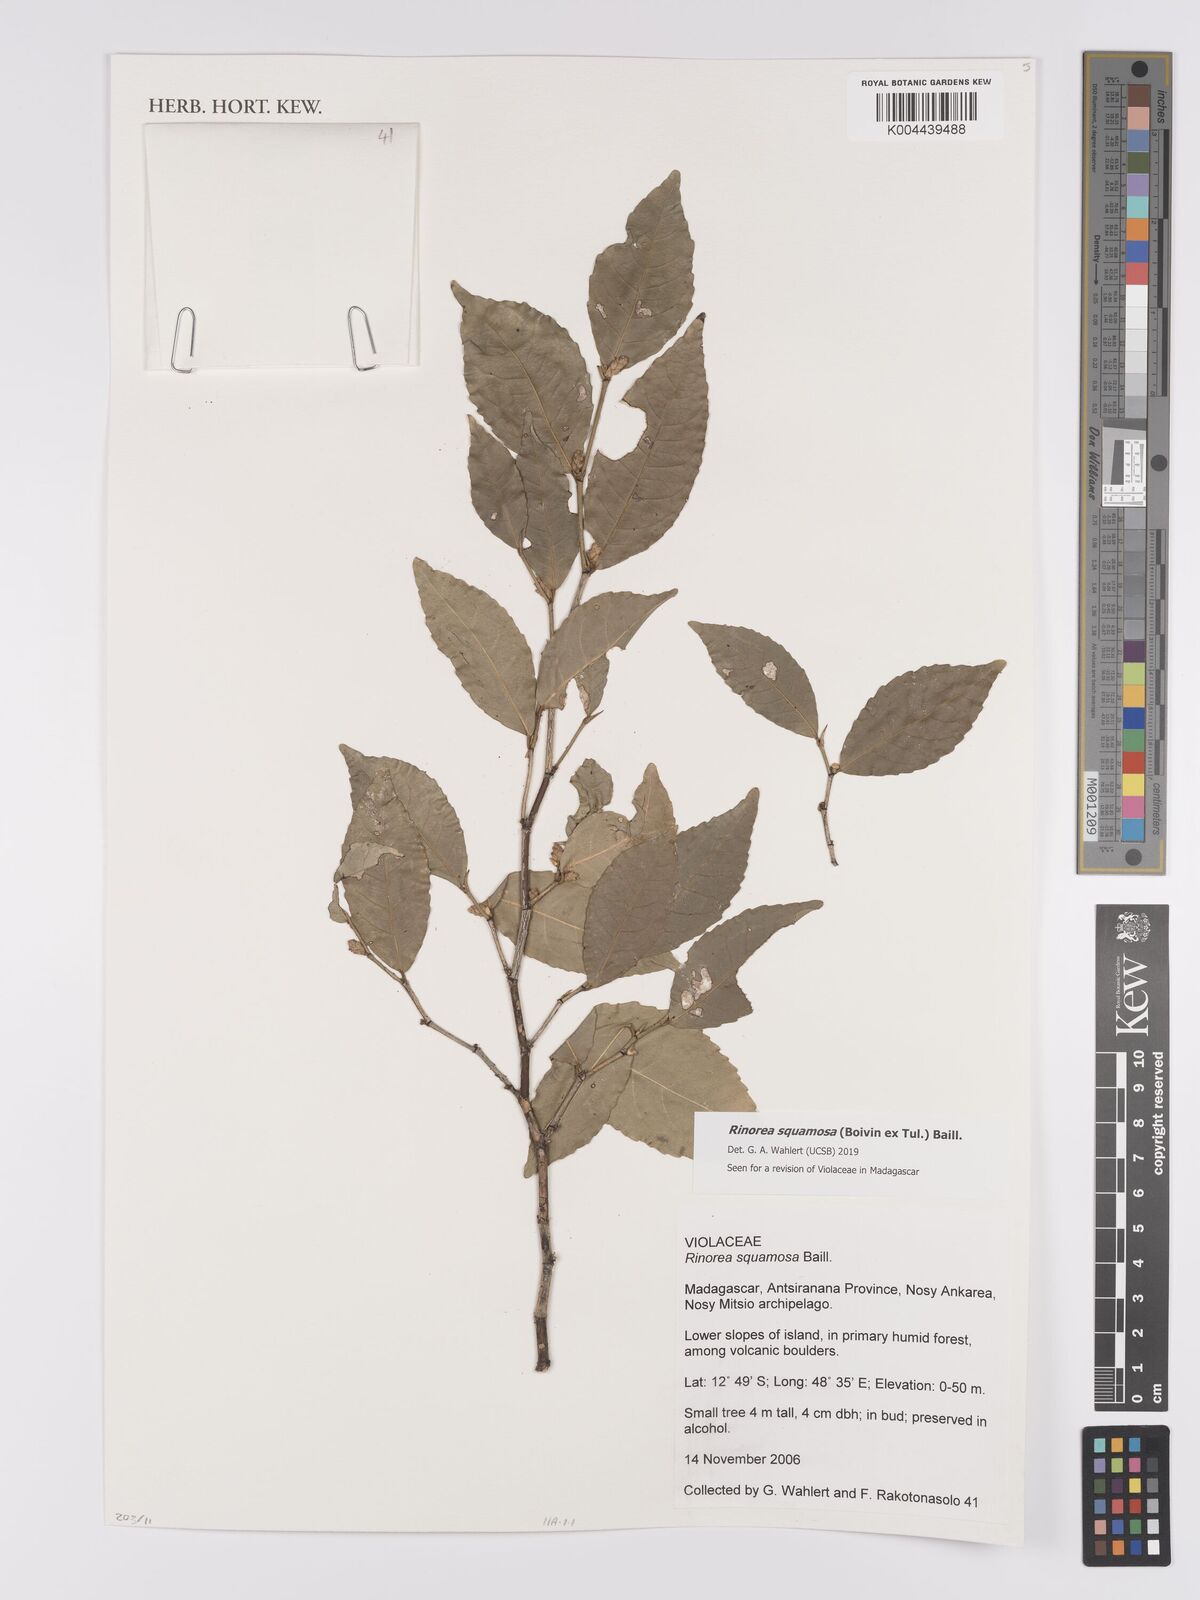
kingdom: Plantae
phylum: Tracheophyta
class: Magnoliopsida
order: Malpighiales
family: Violaceae
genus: Rinorea
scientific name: Rinorea squamosa
